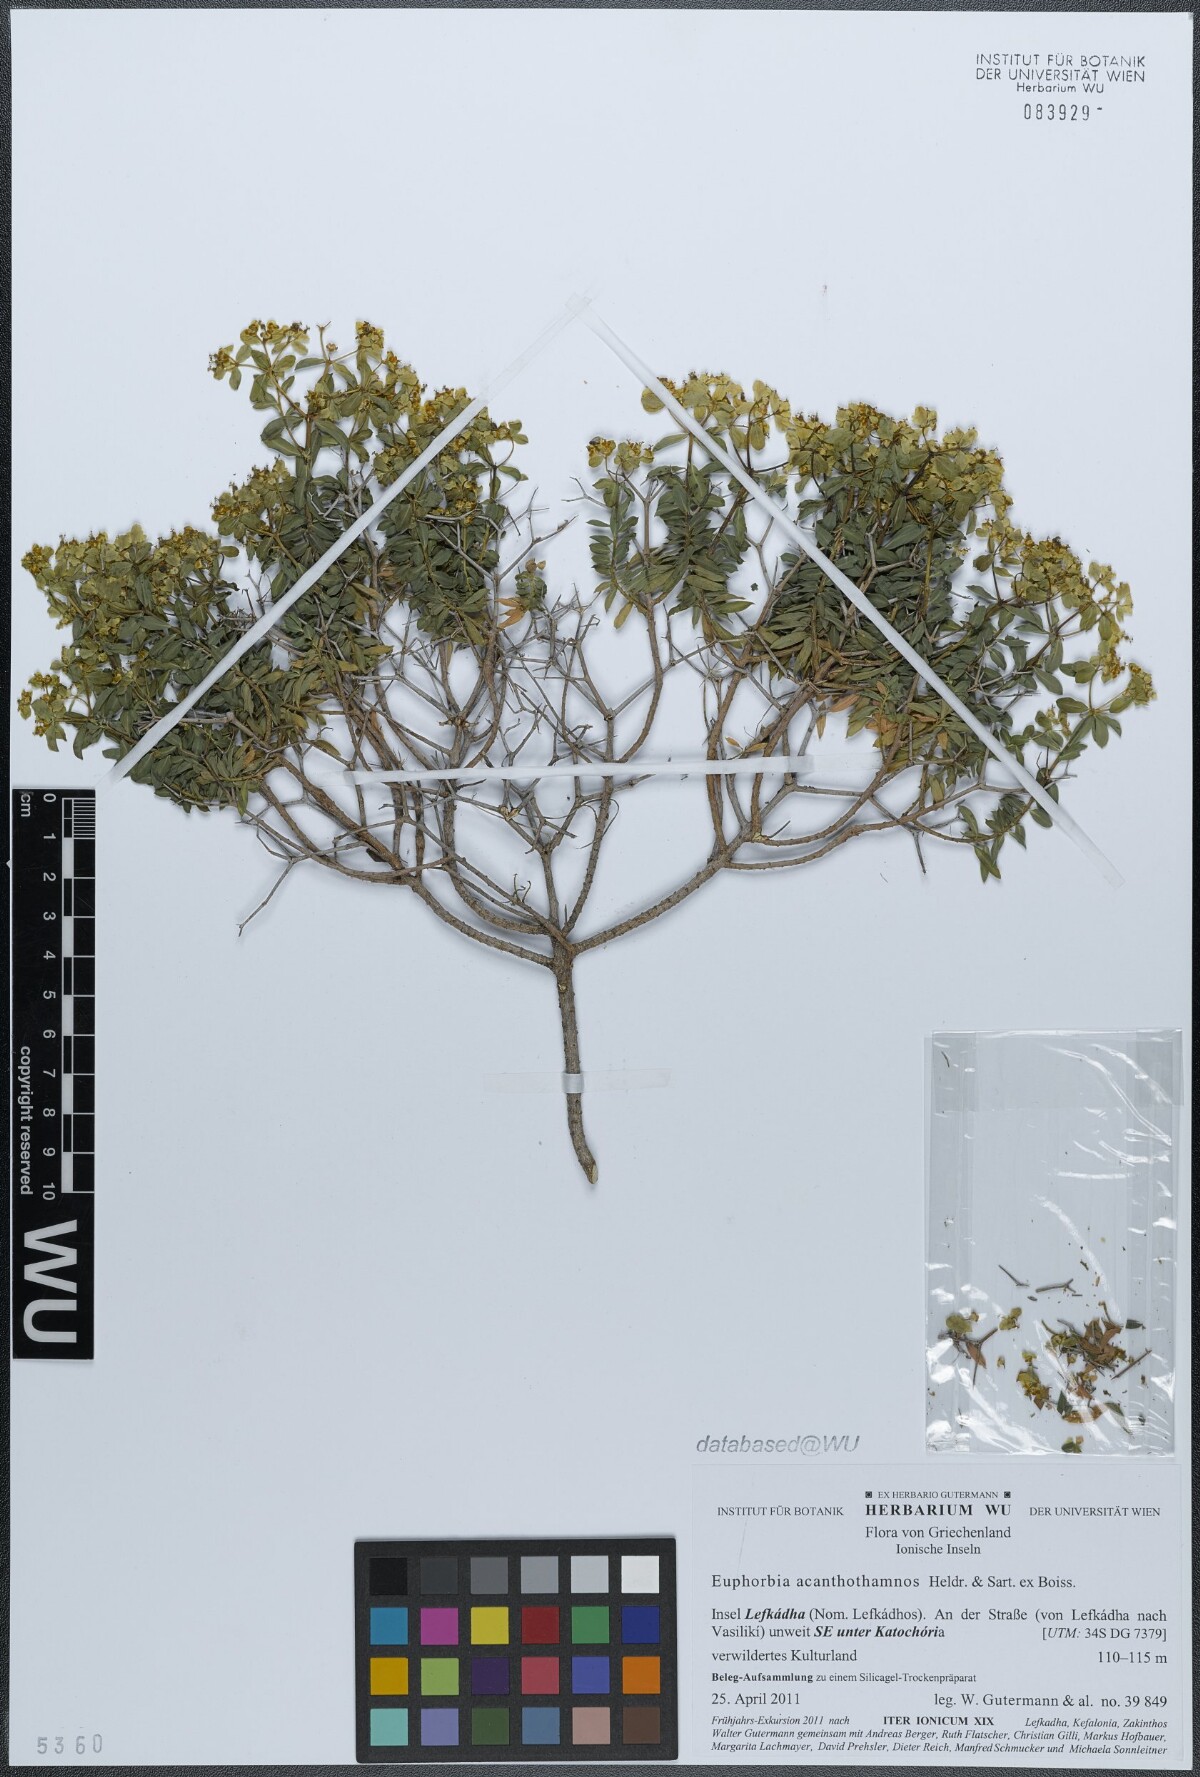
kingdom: Plantae
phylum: Tracheophyta
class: Magnoliopsida
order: Malpighiales
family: Euphorbiaceae
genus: Euphorbia
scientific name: Euphorbia acanthothamnos
